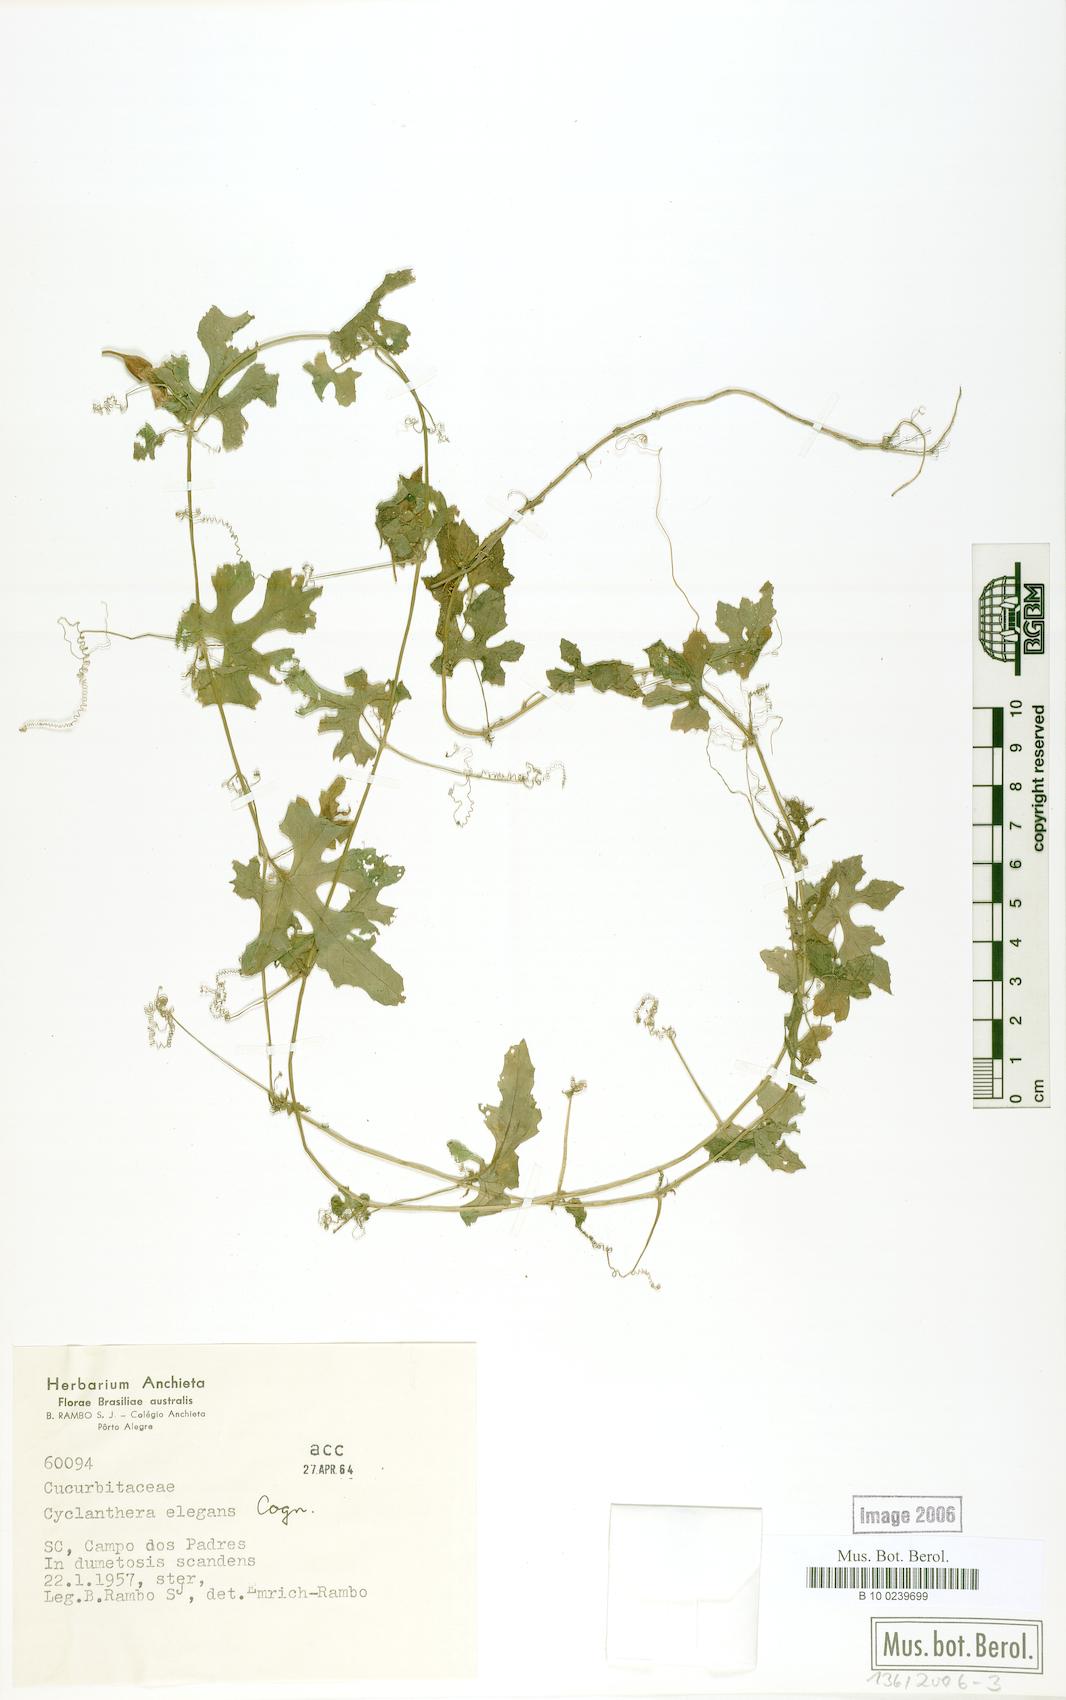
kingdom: Plantae
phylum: Tracheophyta
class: Magnoliopsida
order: Cucurbitales
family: Cucurbitaceae
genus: Cyclanthera
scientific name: Cyclanthera tenuisepala
